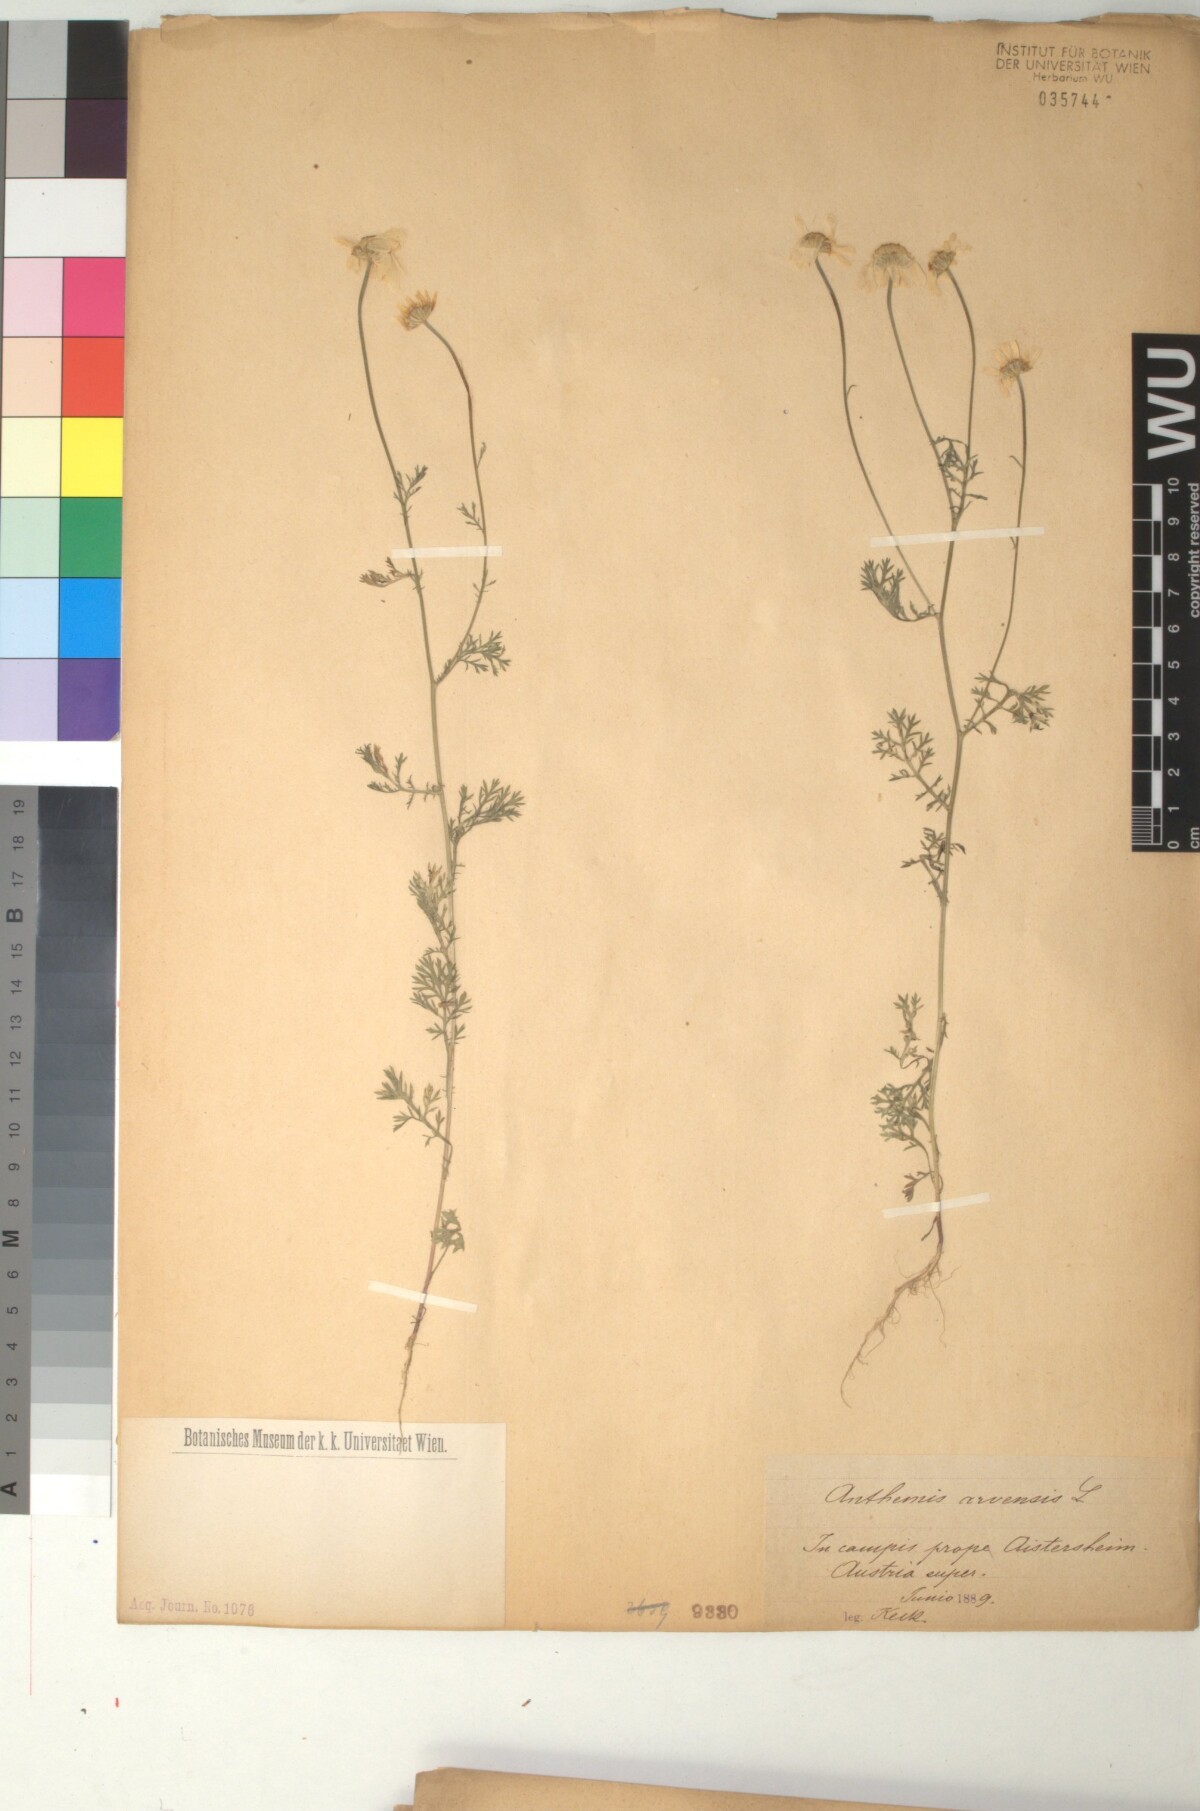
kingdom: Plantae
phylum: Tracheophyta
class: Magnoliopsida
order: Asterales
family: Asteraceae
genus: Anthemis
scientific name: Anthemis arvensis
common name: Corn chamomile
